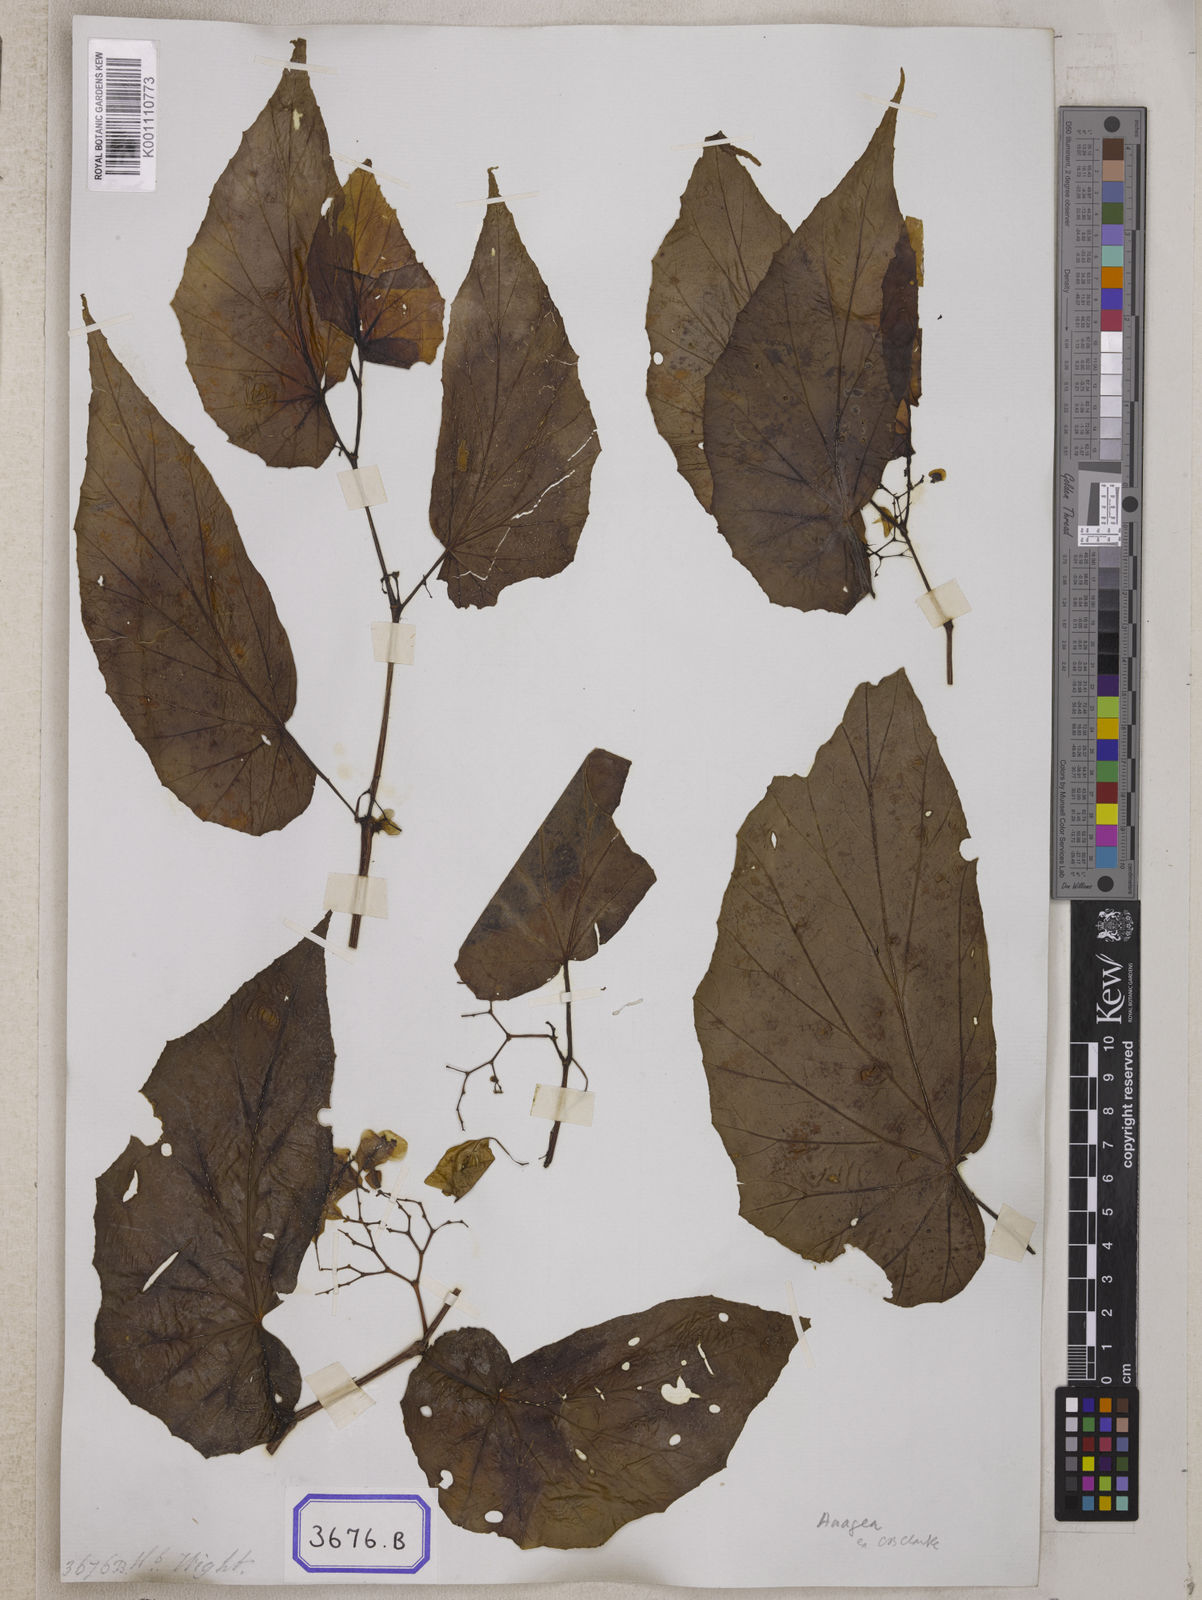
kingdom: Plantae
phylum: Tracheophyta
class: Magnoliopsida
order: Cucurbitales
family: Begoniaceae
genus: Begonia
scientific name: Begonia
